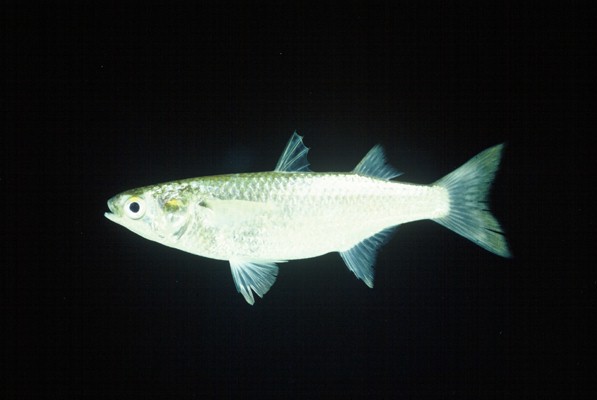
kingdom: Animalia
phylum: Chordata
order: Mugiliformes
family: Mugilidae
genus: Osteomugil
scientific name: Osteomugil cunnesius
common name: Longarm mullet
